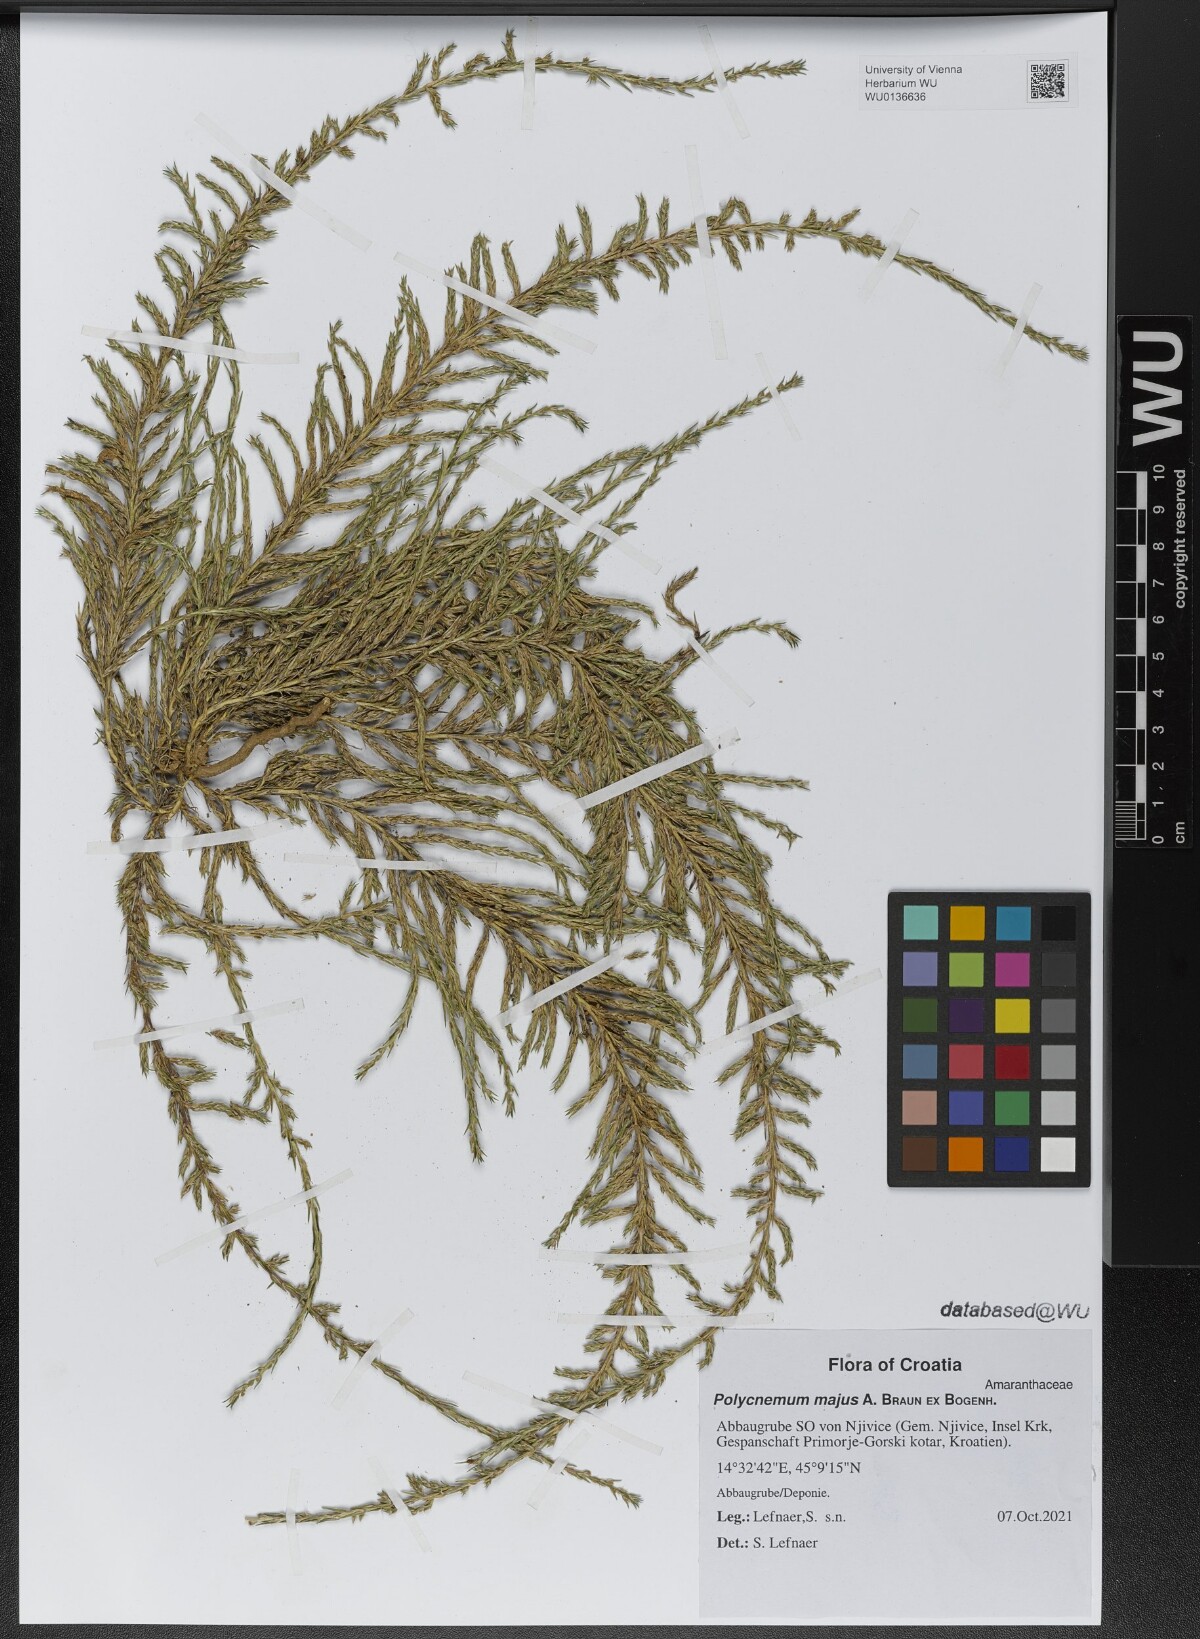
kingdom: Plantae
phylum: Tracheophyta
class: Magnoliopsida
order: Caryophyllales
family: Amaranthaceae
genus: Polycnemum
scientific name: Polycnemum majus
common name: Giant needleleaf
